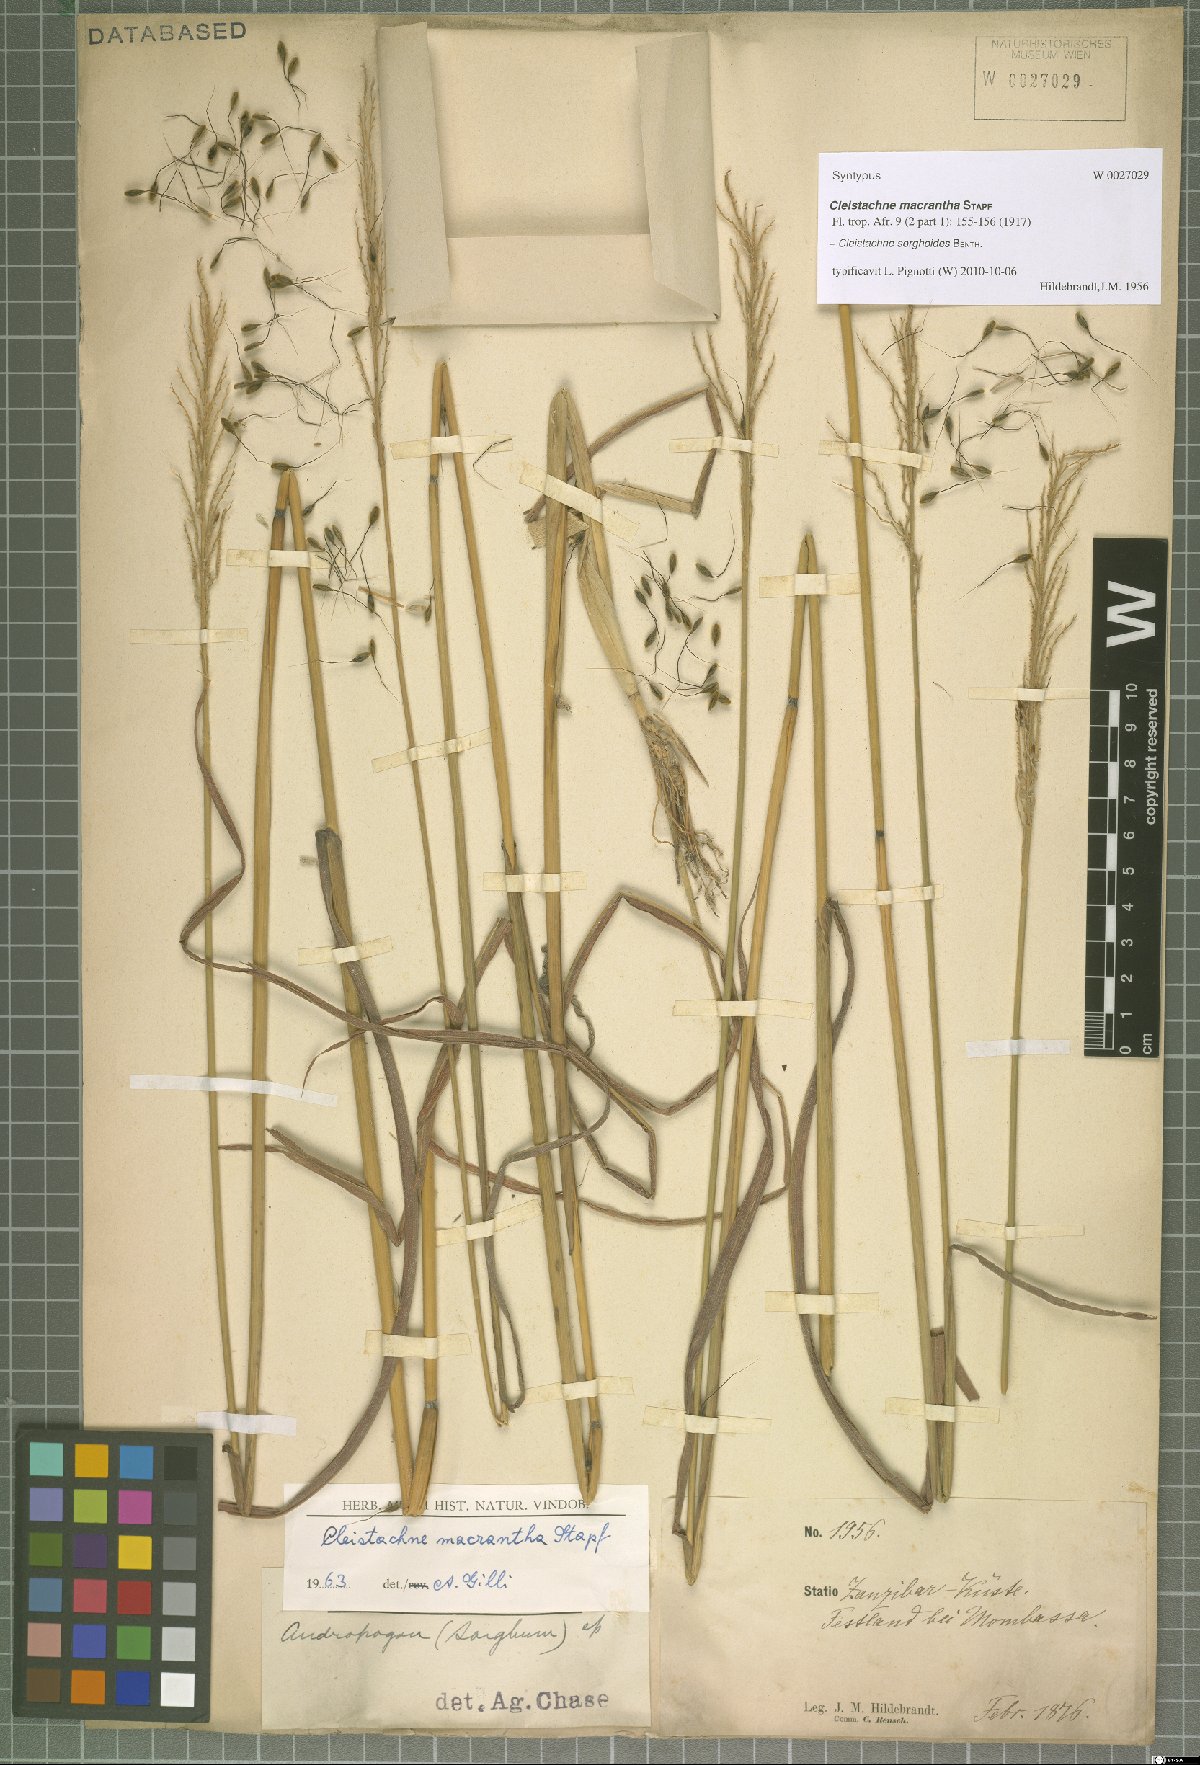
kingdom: Plantae
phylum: Tracheophyta
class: Liliopsida
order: Poales
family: Poaceae
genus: Cleistachne
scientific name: Cleistachne sorghoides
